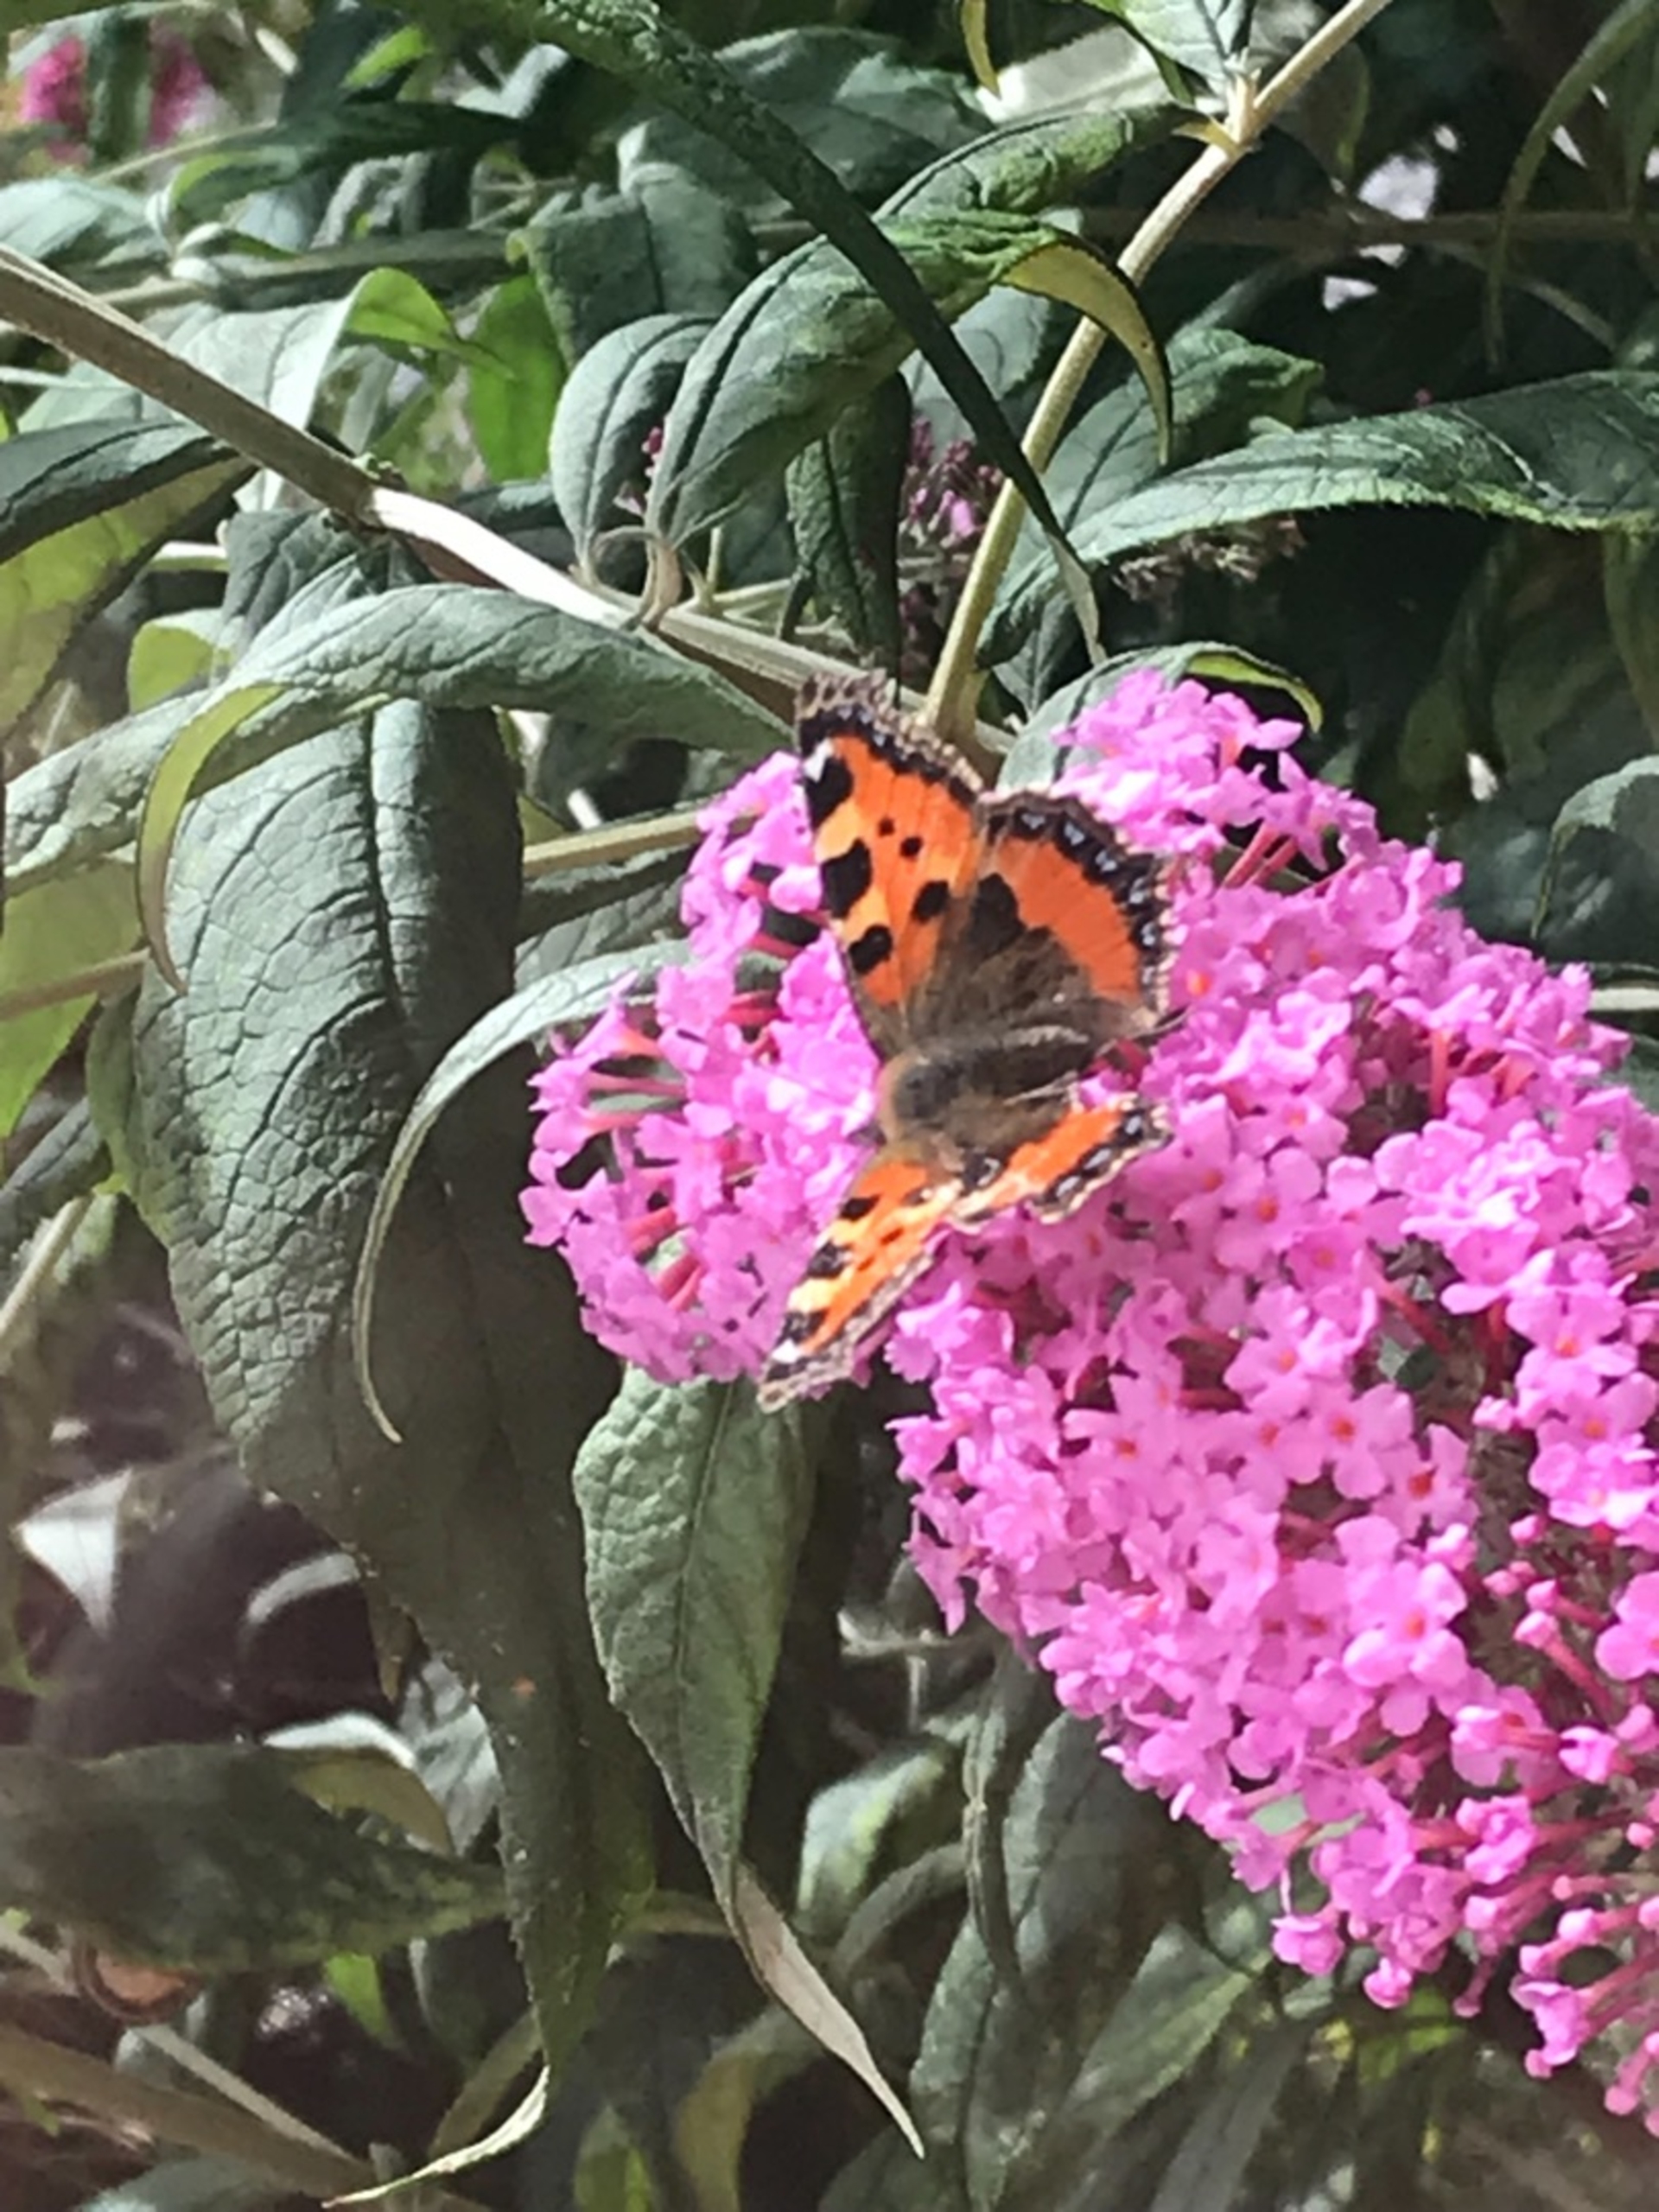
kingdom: Animalia
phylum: Arthropoda
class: Insecta
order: Lepidoptera
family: Nymphalidae
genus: Aglais
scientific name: Aglais urticae
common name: Nældens takvinge
